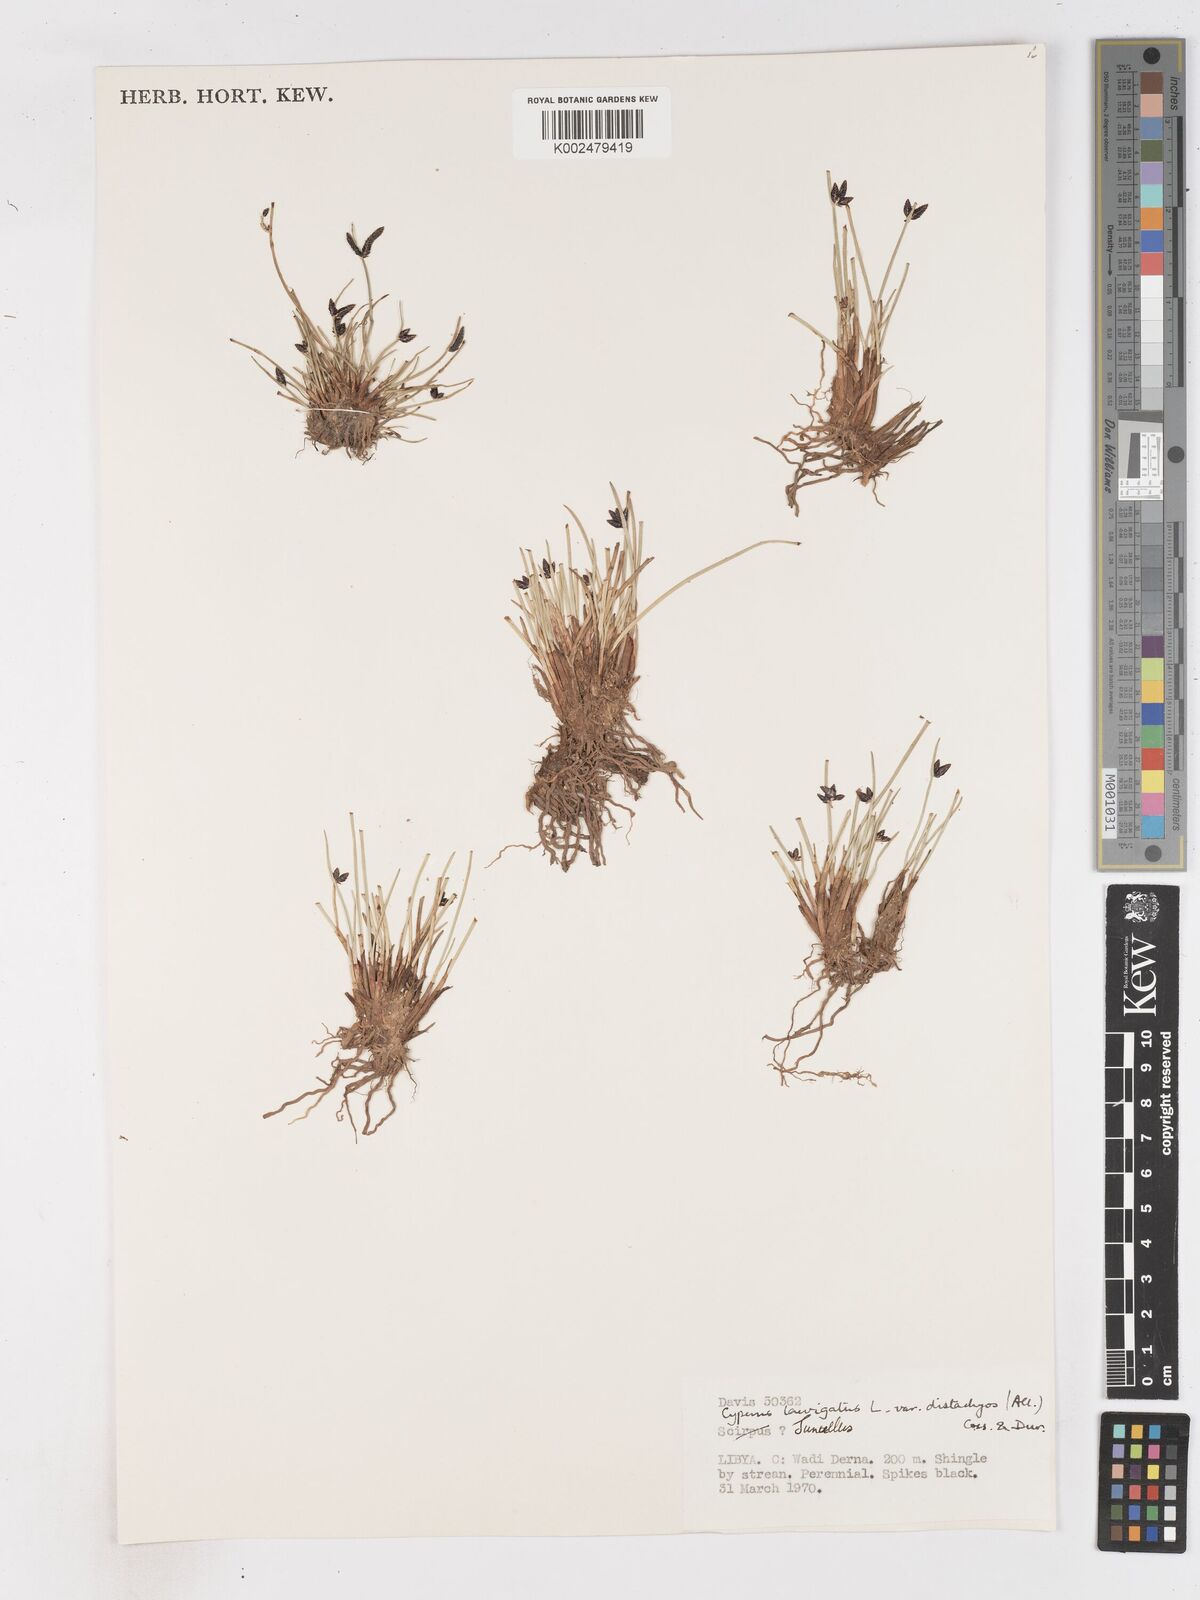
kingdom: Plantae
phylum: Tracheophyta
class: Liliopsida
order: Poales
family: Cyperaceae
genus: Cyperus
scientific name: Cyperus laevigatus
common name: Smooth flat sedge
